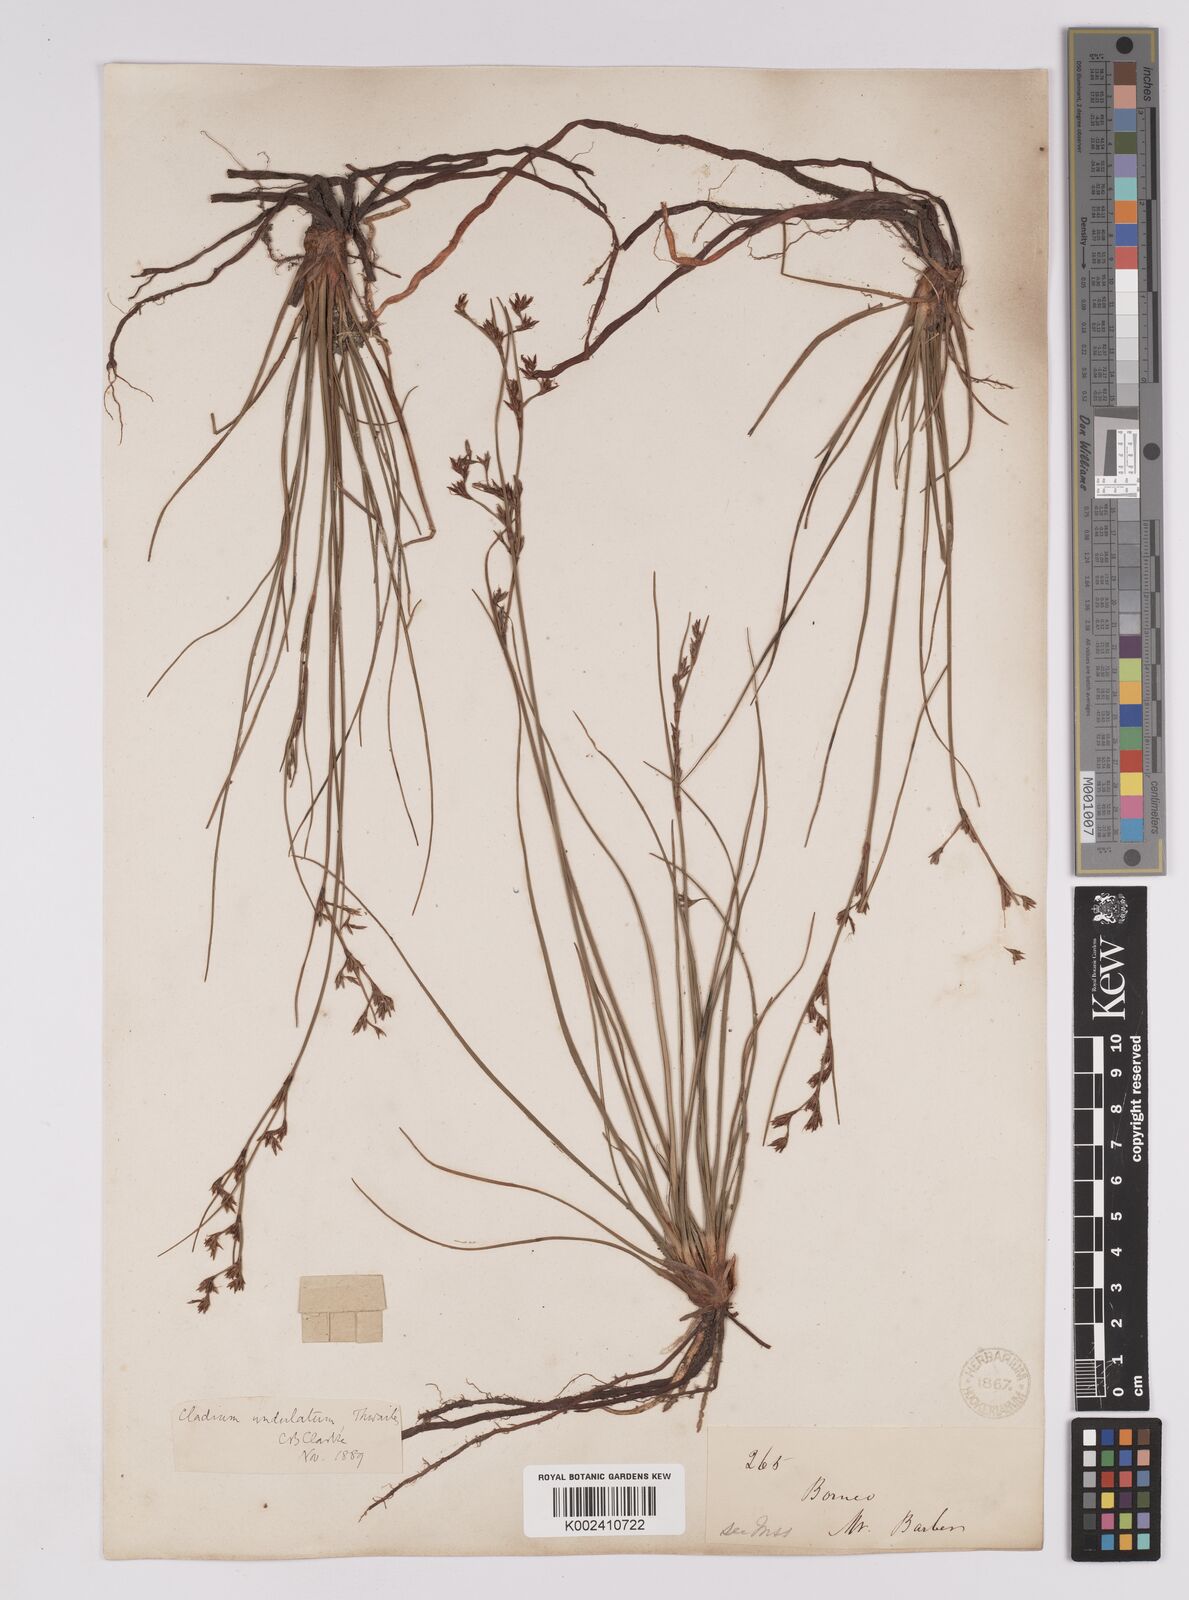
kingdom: Plantae
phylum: Tracheophyta
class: Liliopsida
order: Poales
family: Cyperaceae
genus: Anthelepis
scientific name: Anthelepis undulata
